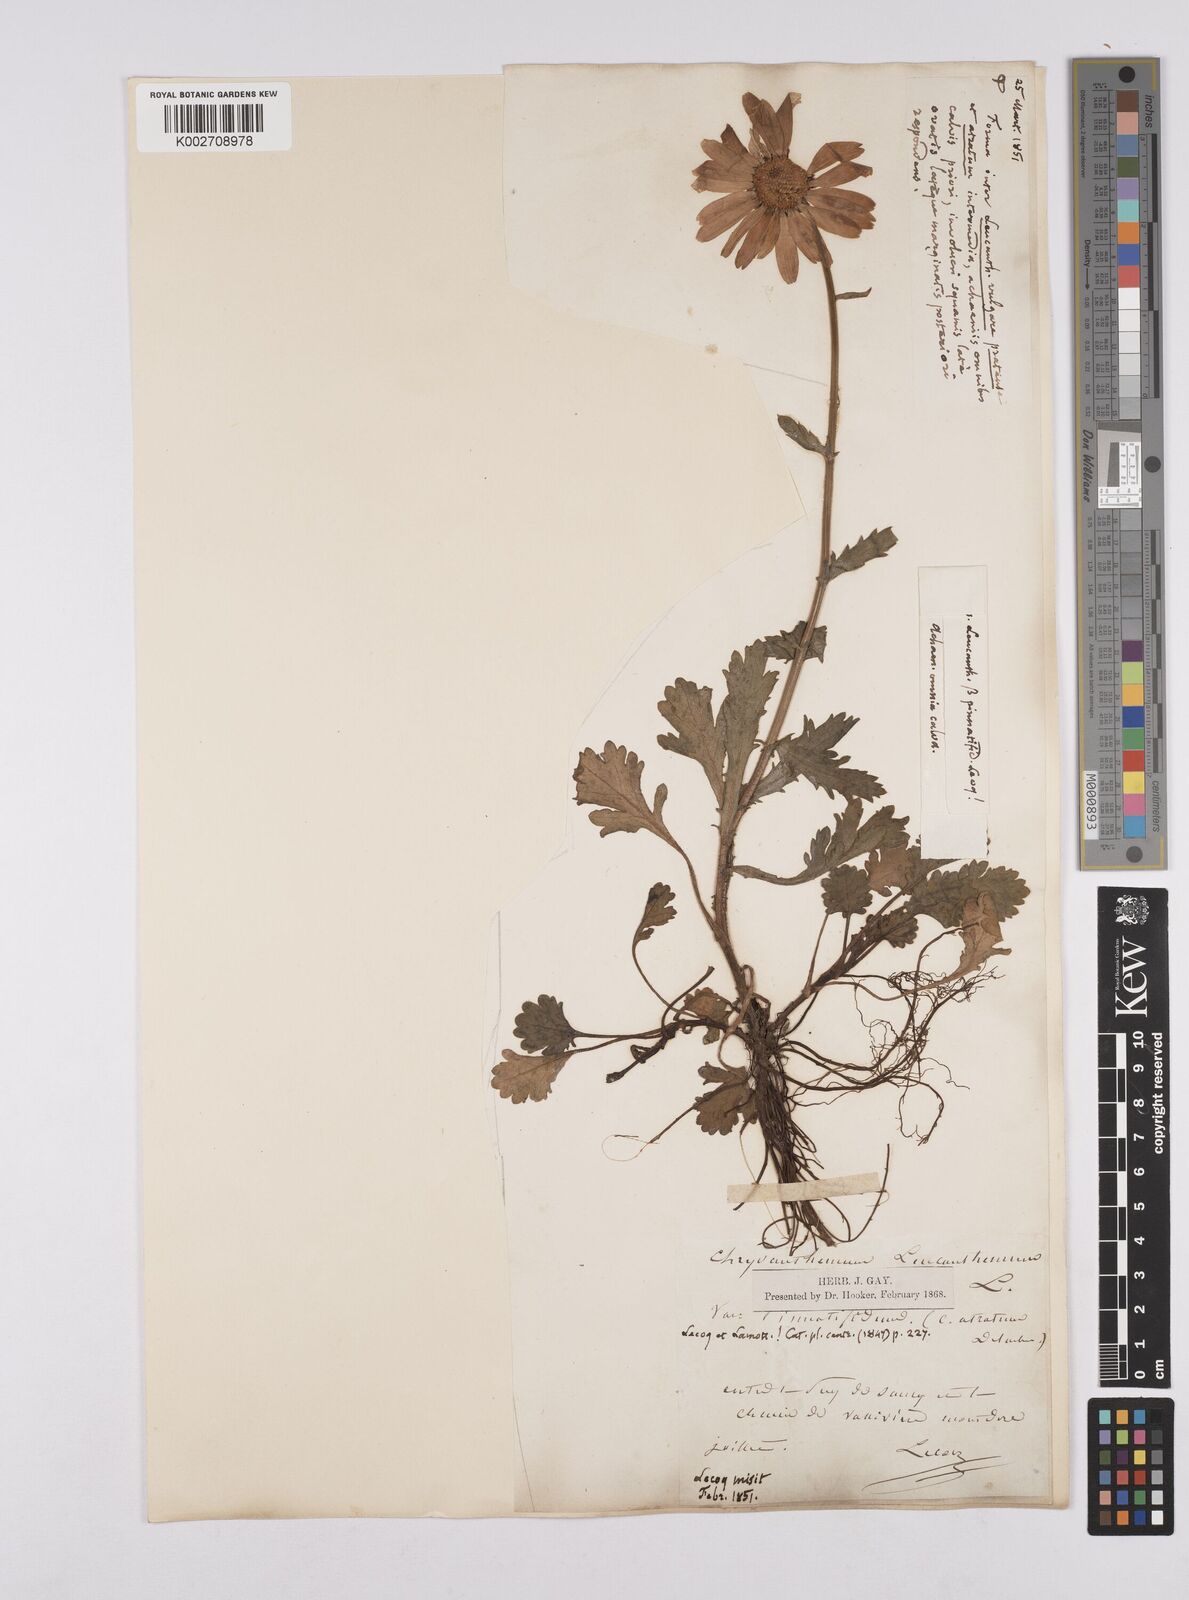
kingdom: Plantae
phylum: Tracheophyta
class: Magnoliopsida
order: Asterales
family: Asteraceae
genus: Leucanthemum
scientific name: Leucanthemum vulgare
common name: Oxeye daisy
